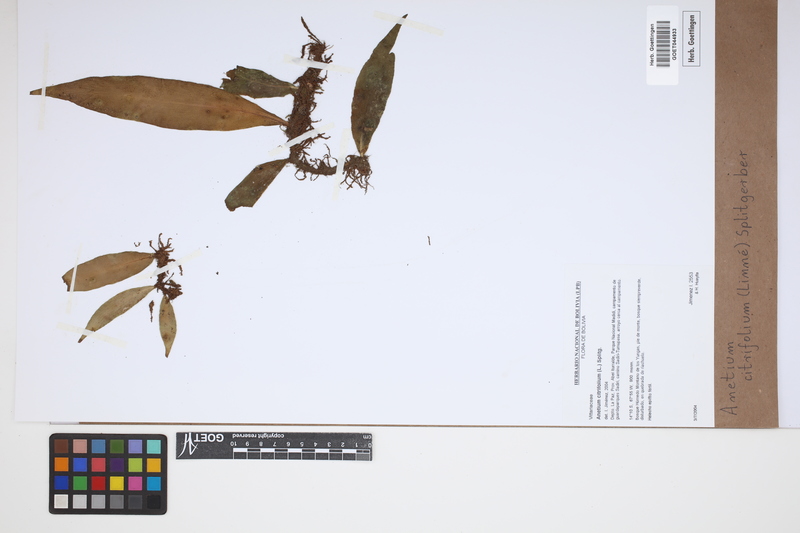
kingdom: Plantae
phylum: Tracheophyta
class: Polypodiopsida
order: Polypodiales
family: Pteridaceae
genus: Polytaenium
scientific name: Polytaenium citrifolium
